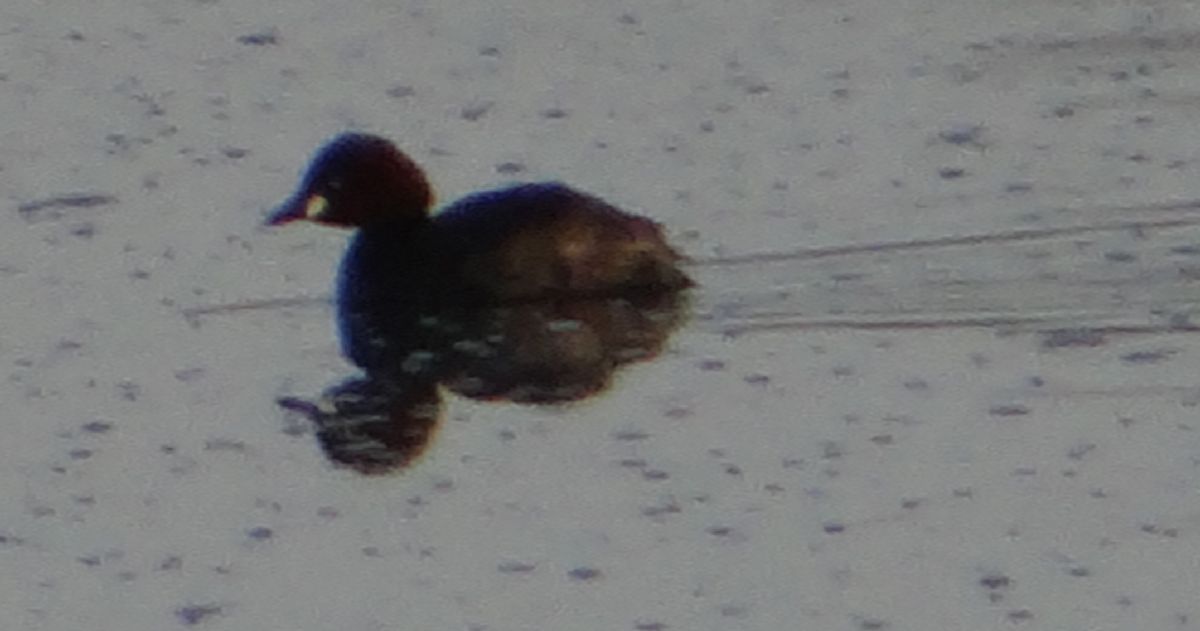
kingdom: Animalia
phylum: Chordata
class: Aves
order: Podicipediformes
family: Podicipedidae
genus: Tachybaptus
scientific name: Tachybaptus ruficollis
